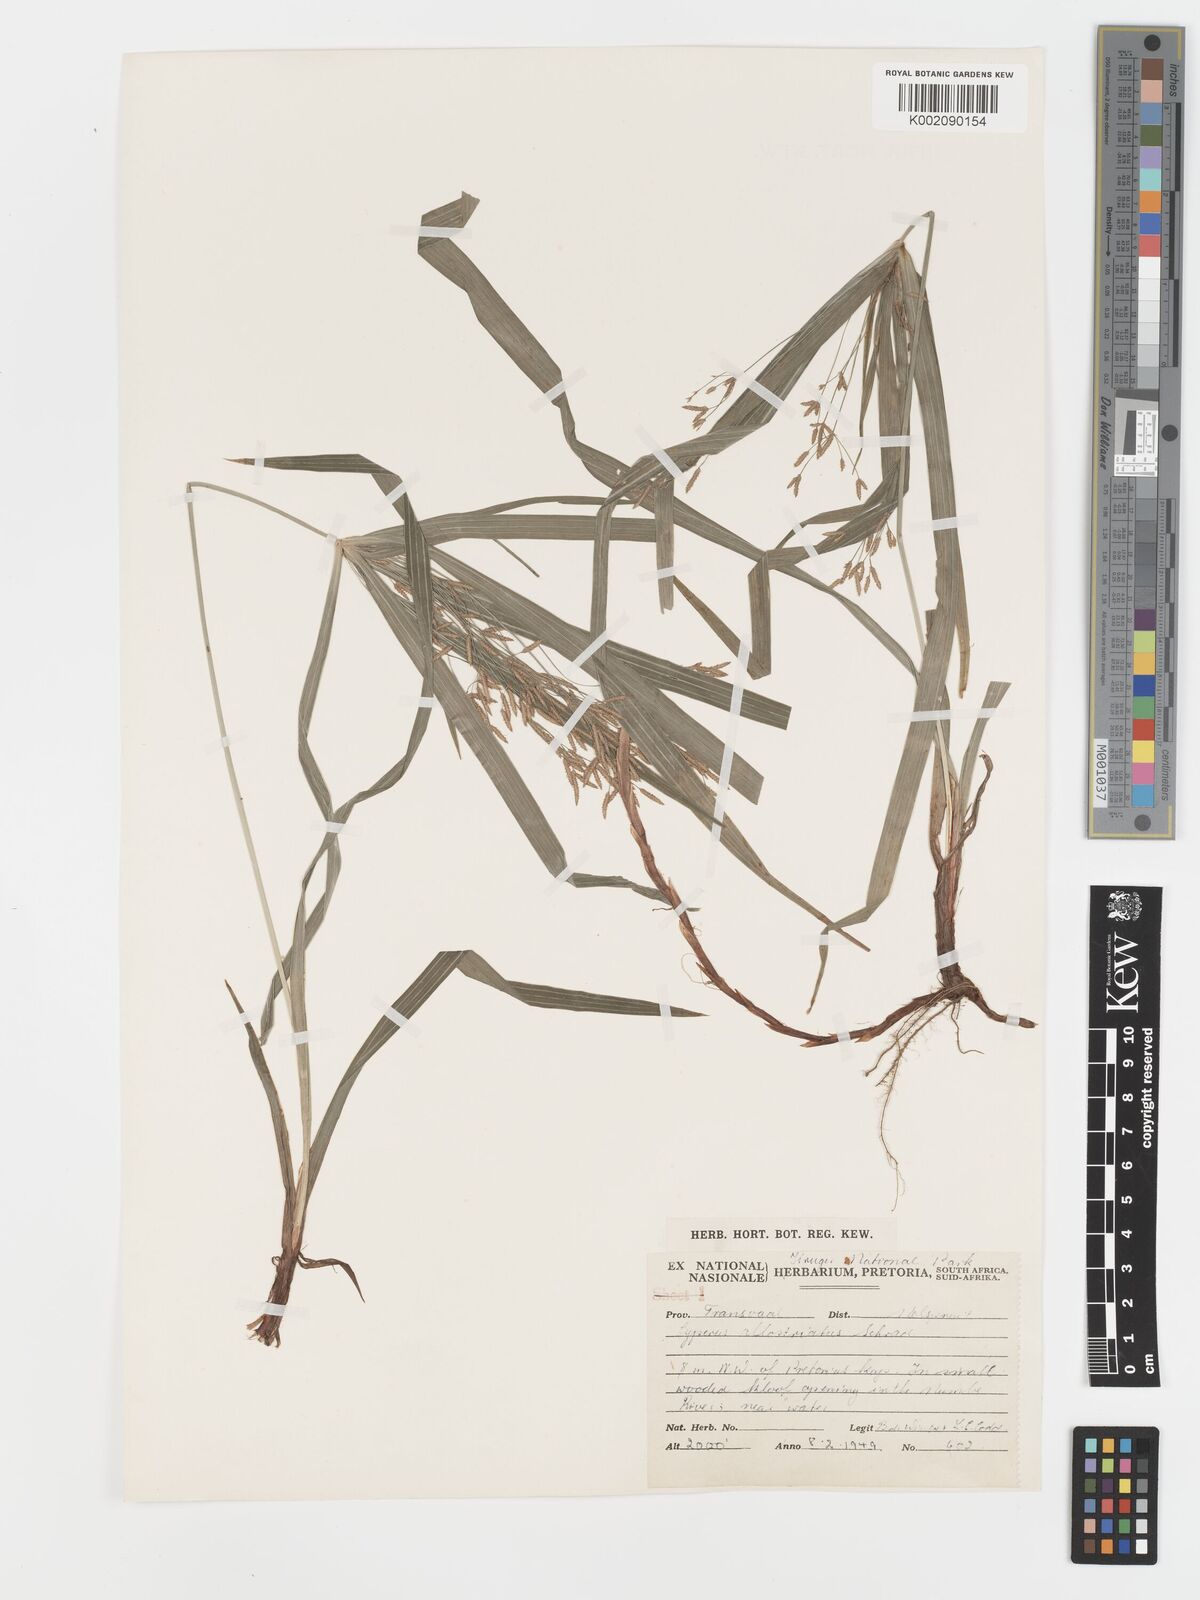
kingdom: Plantae
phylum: Tracheophyta
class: Liliopsida
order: Poales
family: Cyperaceae
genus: Cyperus
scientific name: Cyperus albostriatus
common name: Dwarf umbrella-grass
